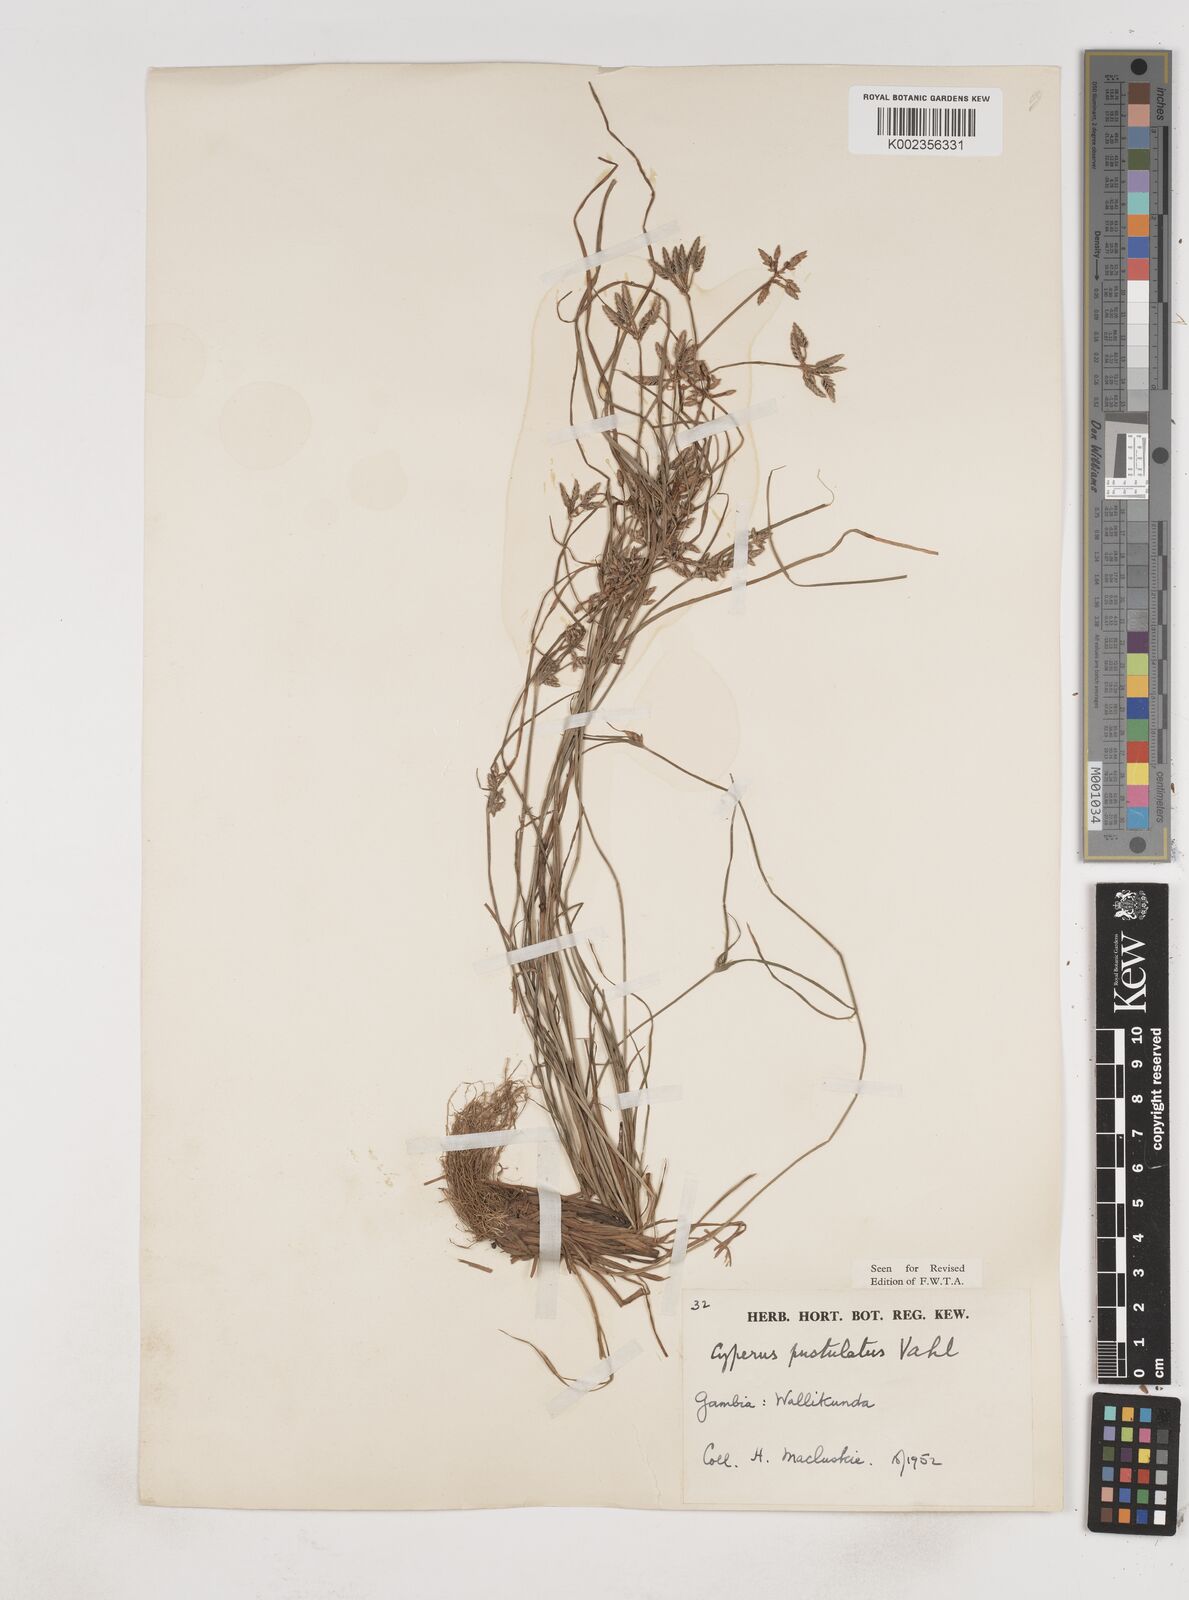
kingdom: Plantae
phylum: Tracheophyta
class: Liliopsida
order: Poales
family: Cyperaceae
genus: Cyperus
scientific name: Cyperus pustulatus
